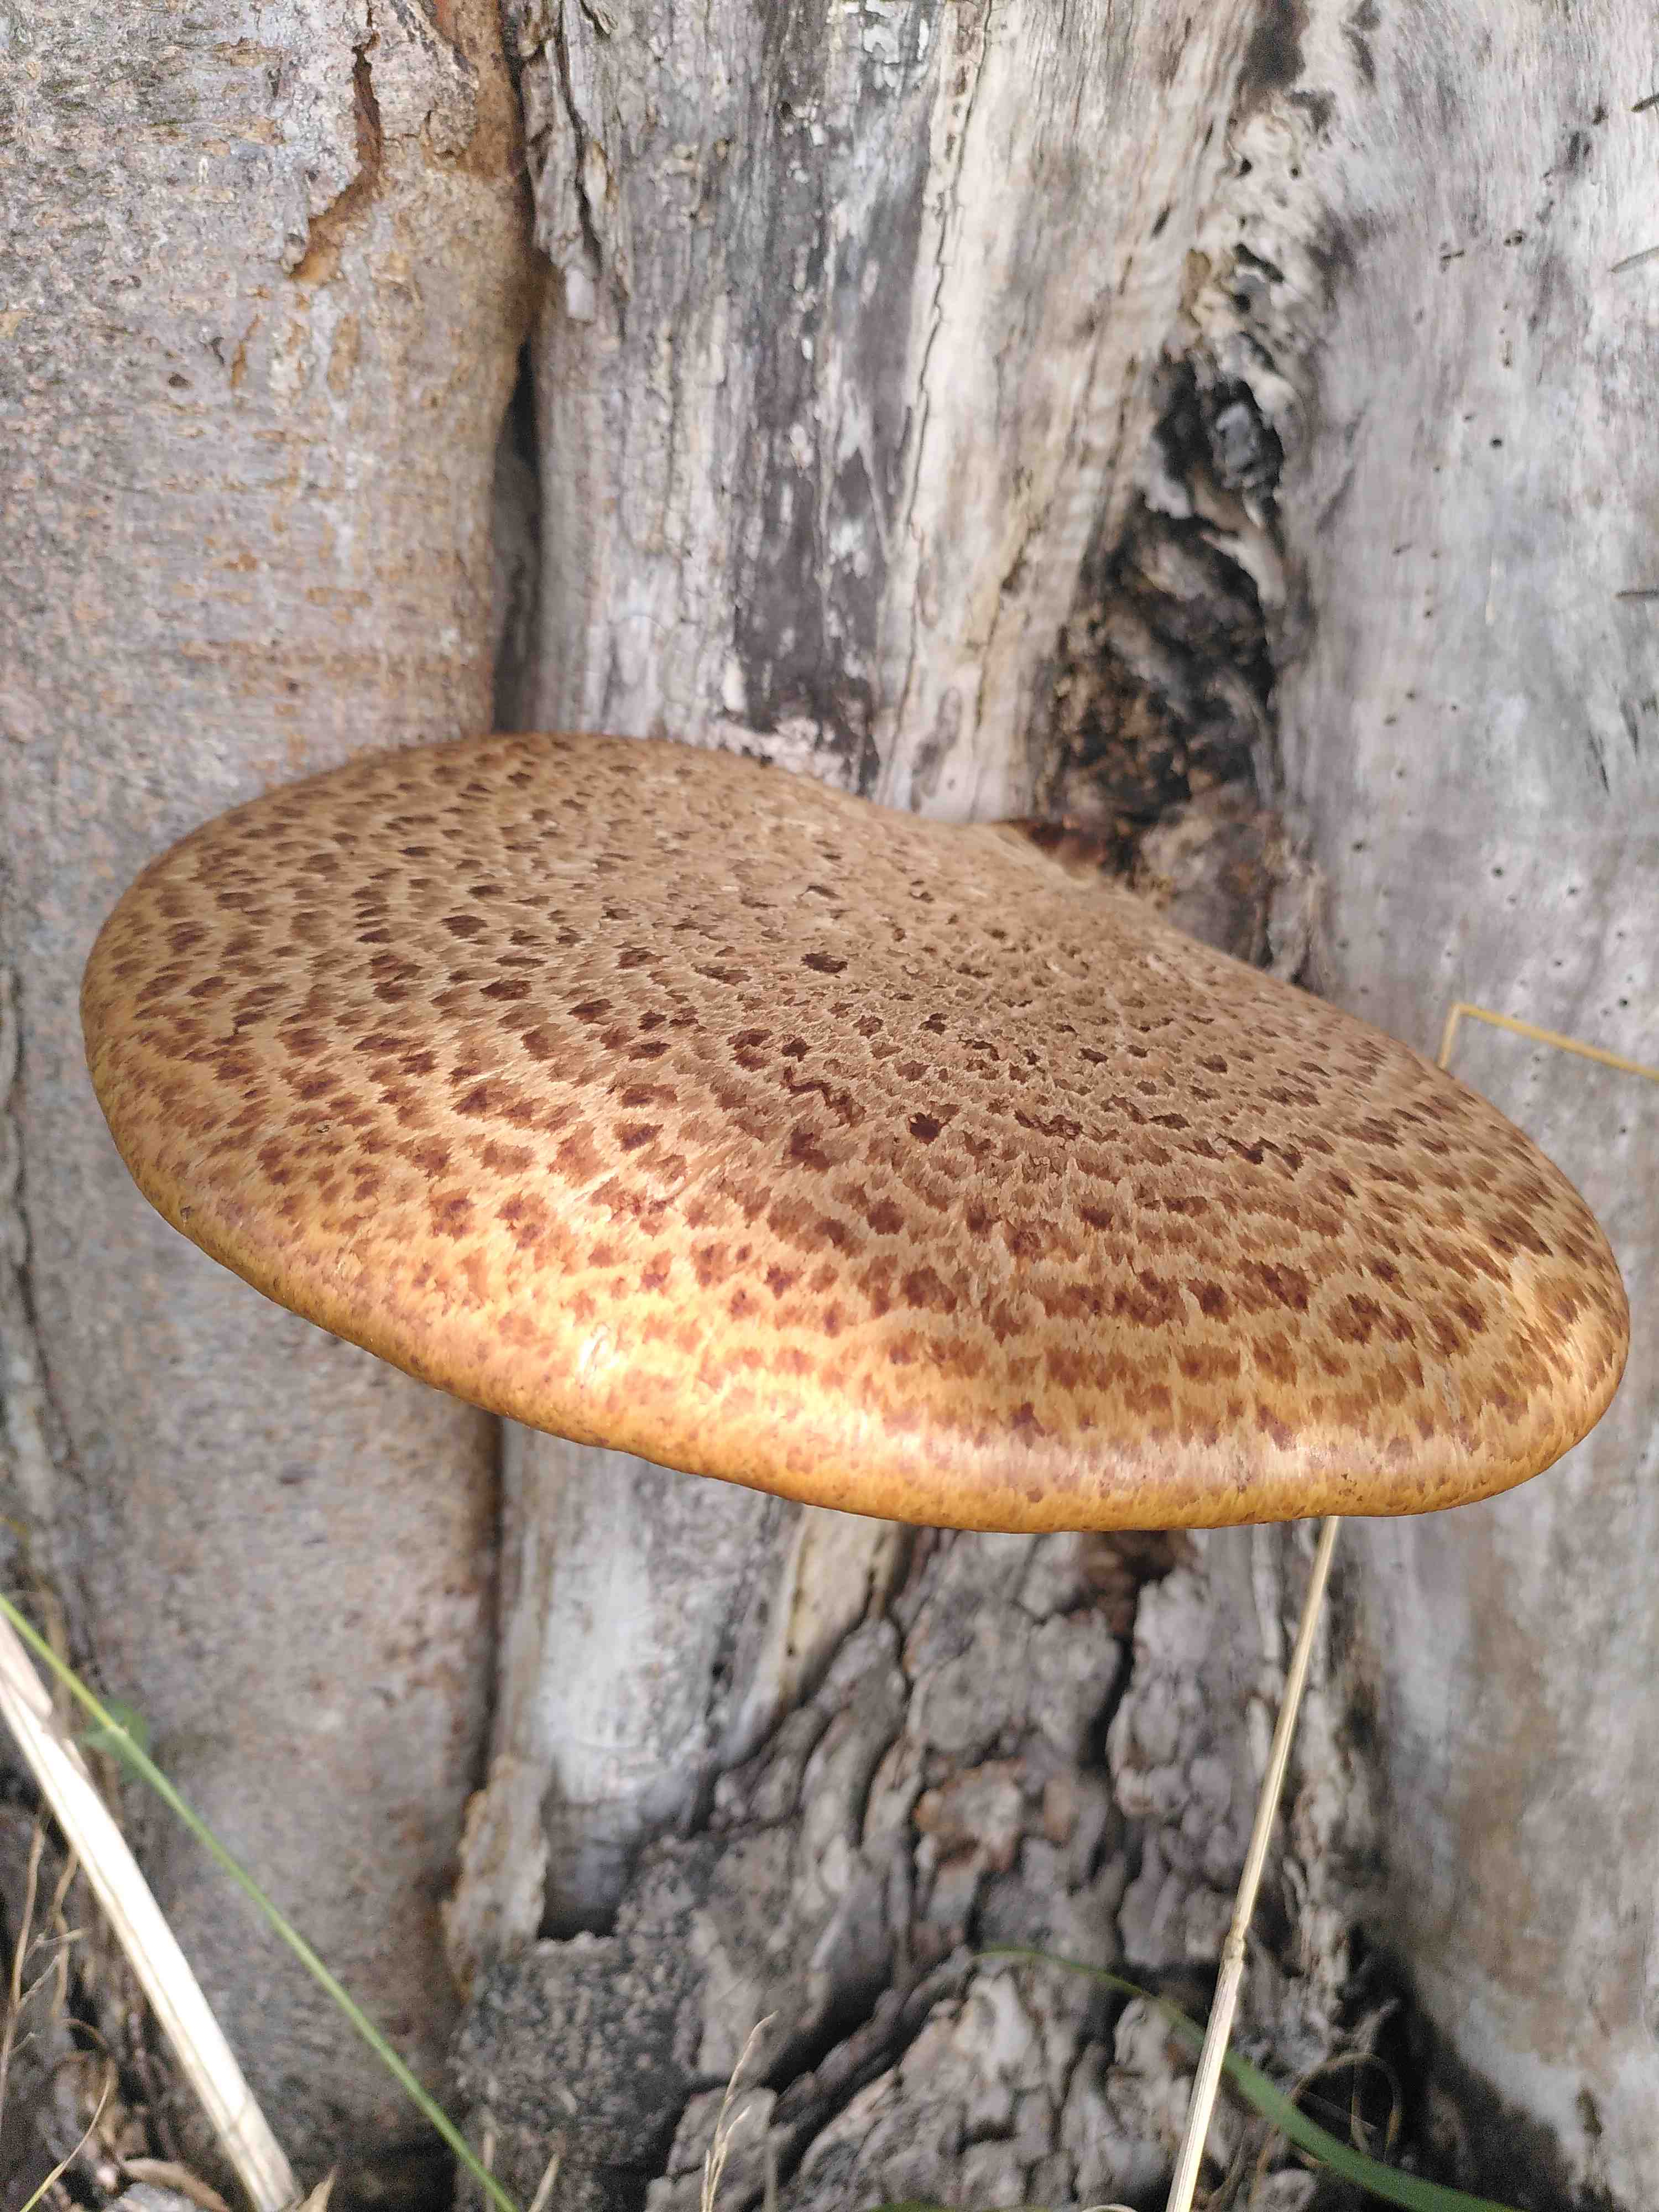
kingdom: Fungi
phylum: Basidiomycota
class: Agaricomycetes
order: Polyporales
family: Polyporaceae
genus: Cerioporus
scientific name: Cerioporus squamosus
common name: skællet stilkporesvamp
